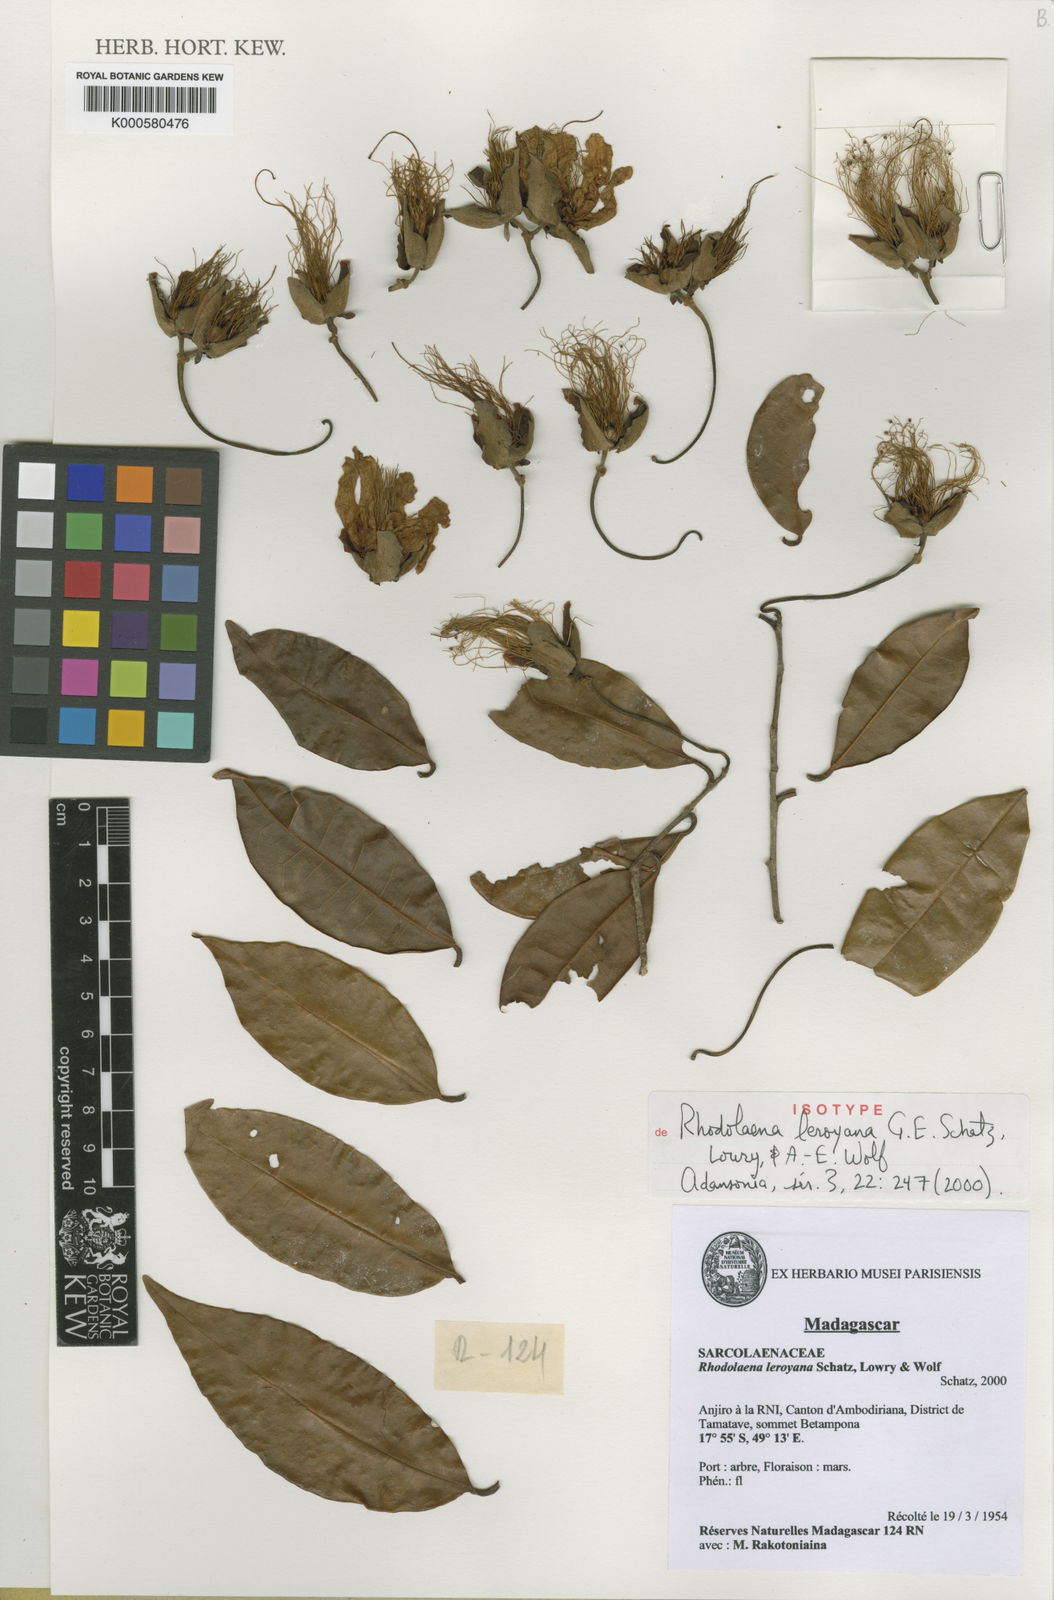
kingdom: Plantae
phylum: Tracheophyta
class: Magnoliopsida
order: Malvales
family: Sarcolaenaceae
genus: Rhodolaena
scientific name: Rhodolaena leroyana
